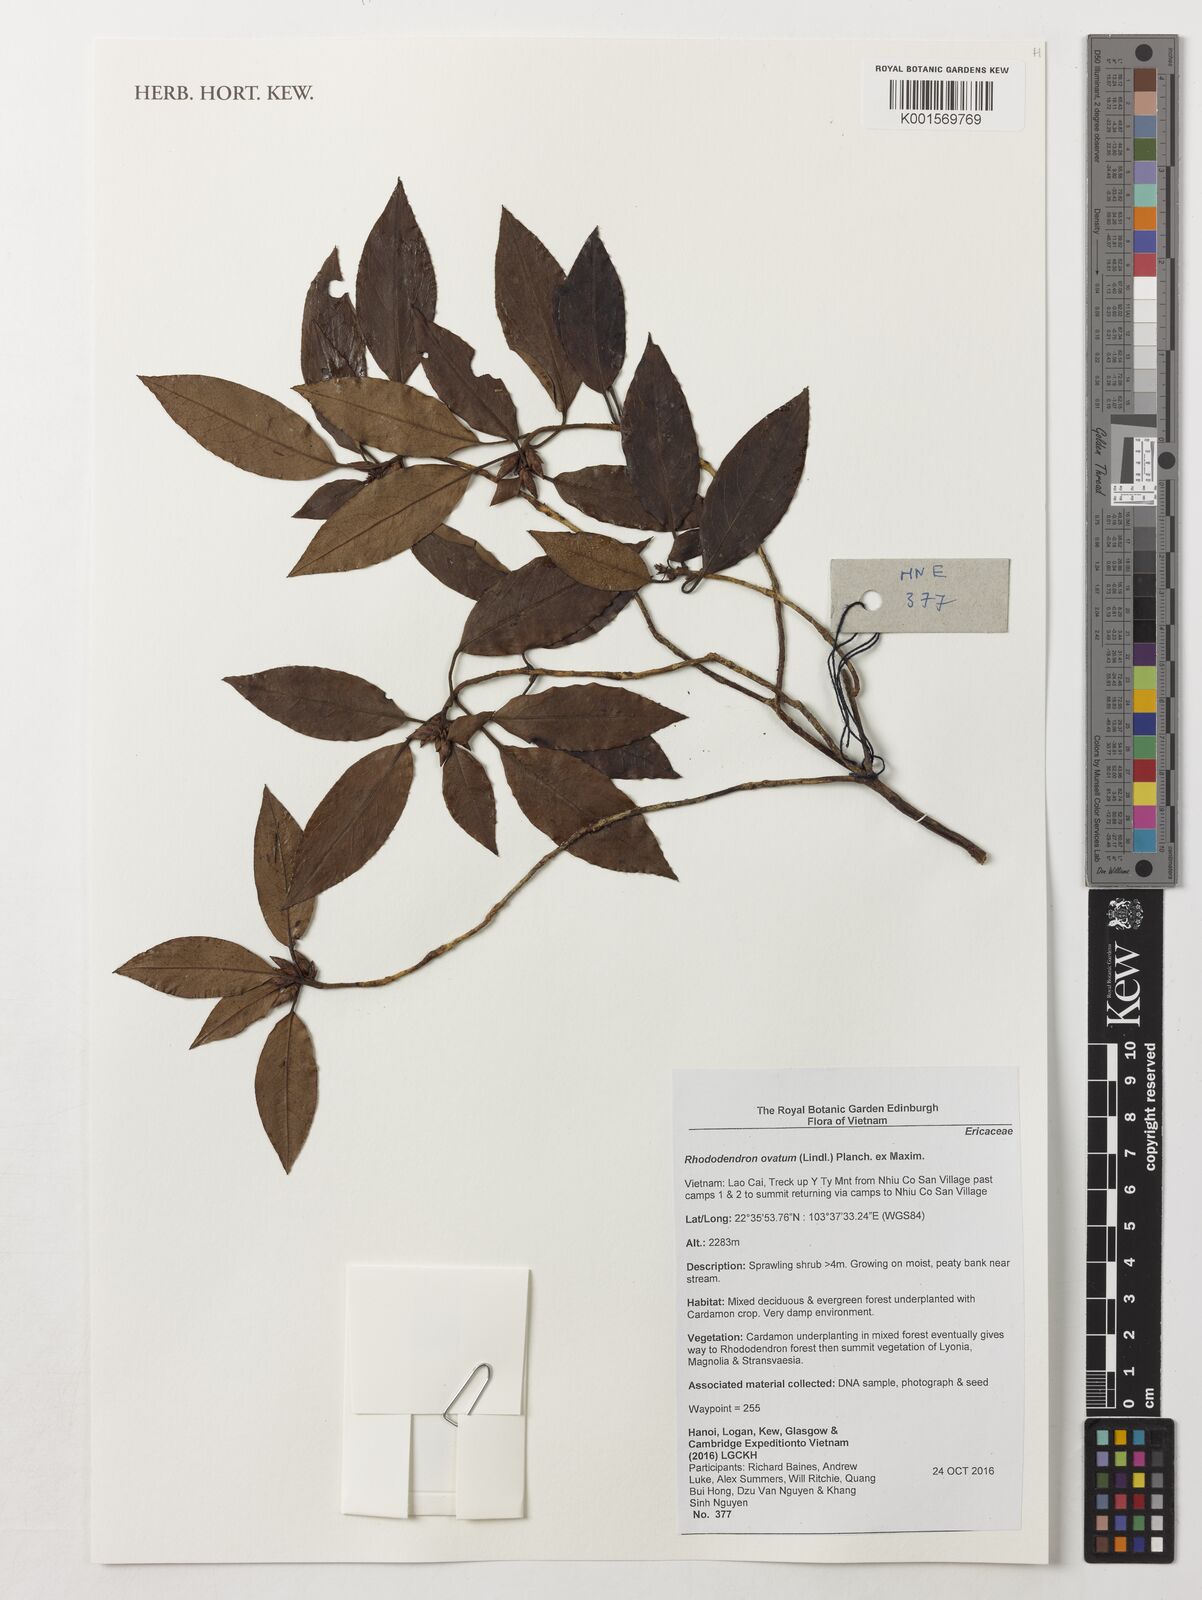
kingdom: Plantae
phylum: Tracheophyta
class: Magnoliopsida
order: Ericales
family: Ericaceae
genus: Rhododendron
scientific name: Rhododendron ovatum
